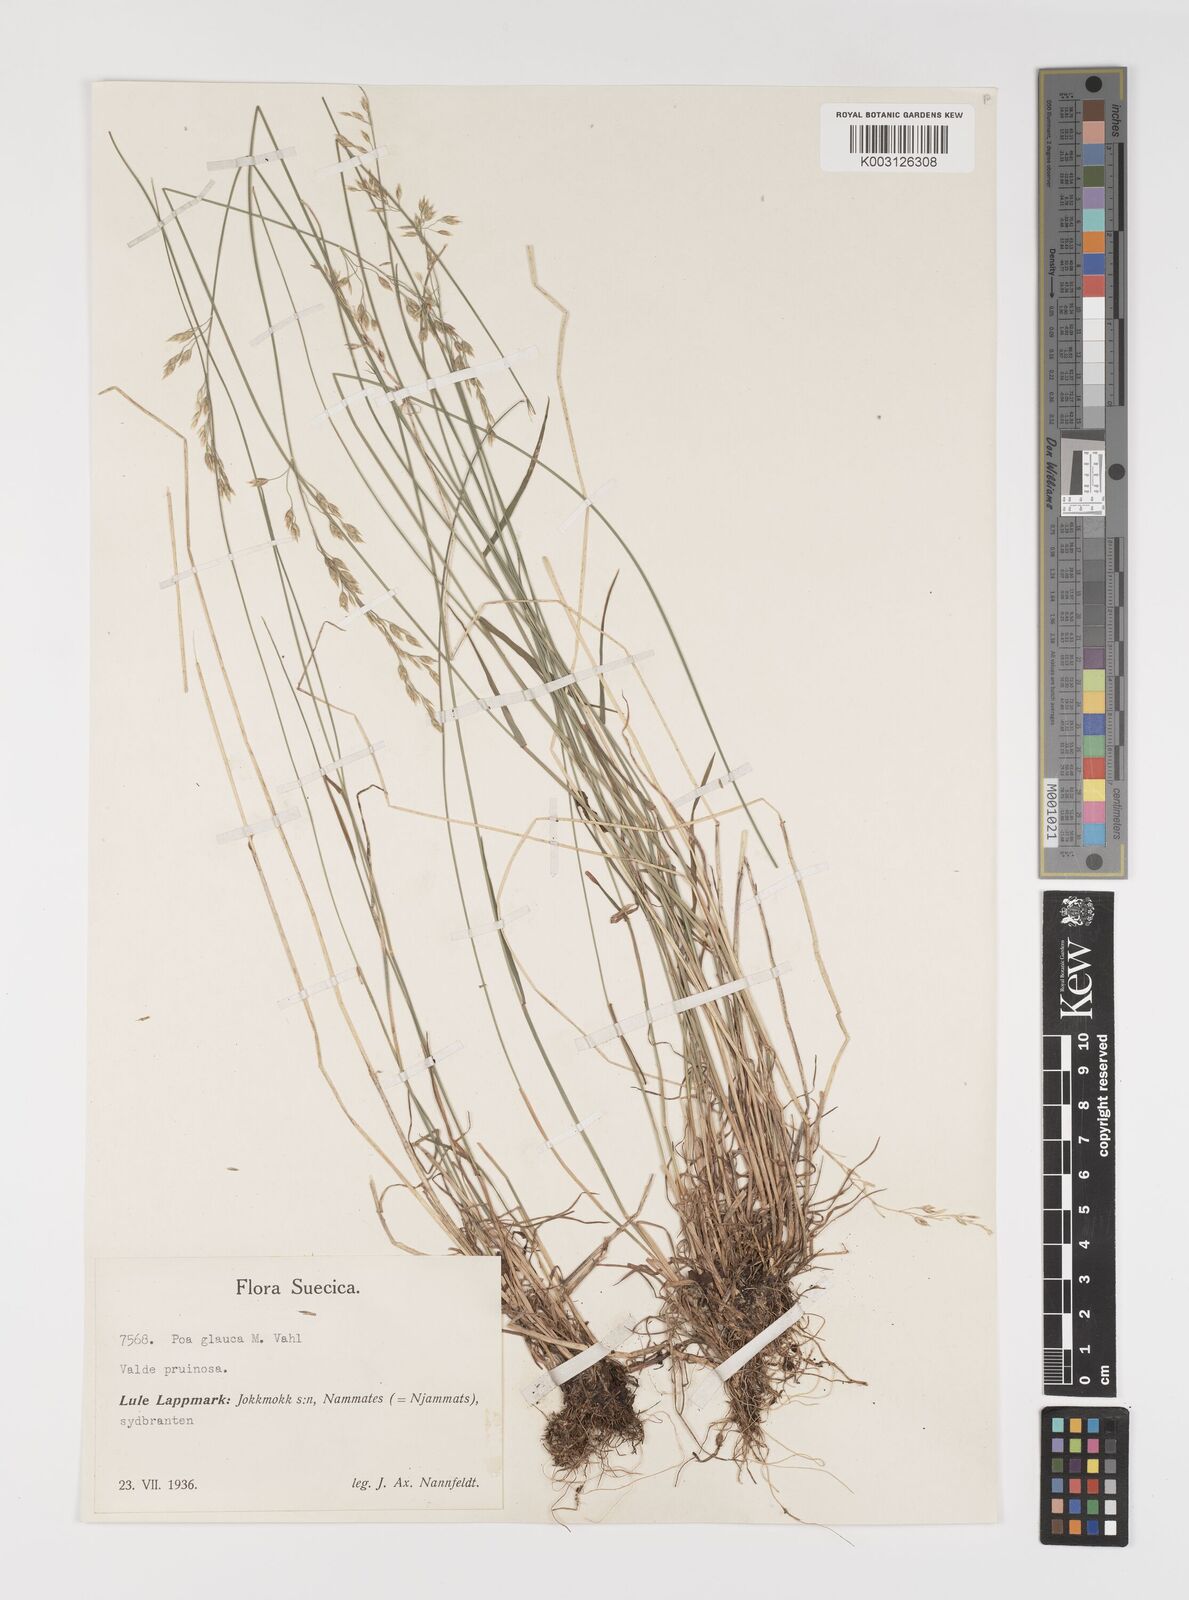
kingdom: Plantae
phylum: Tracheophyta
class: Liliopsida
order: Poales
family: Poaceae
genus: Poa
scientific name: Poa glauca
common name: Glaucous bluegrass
